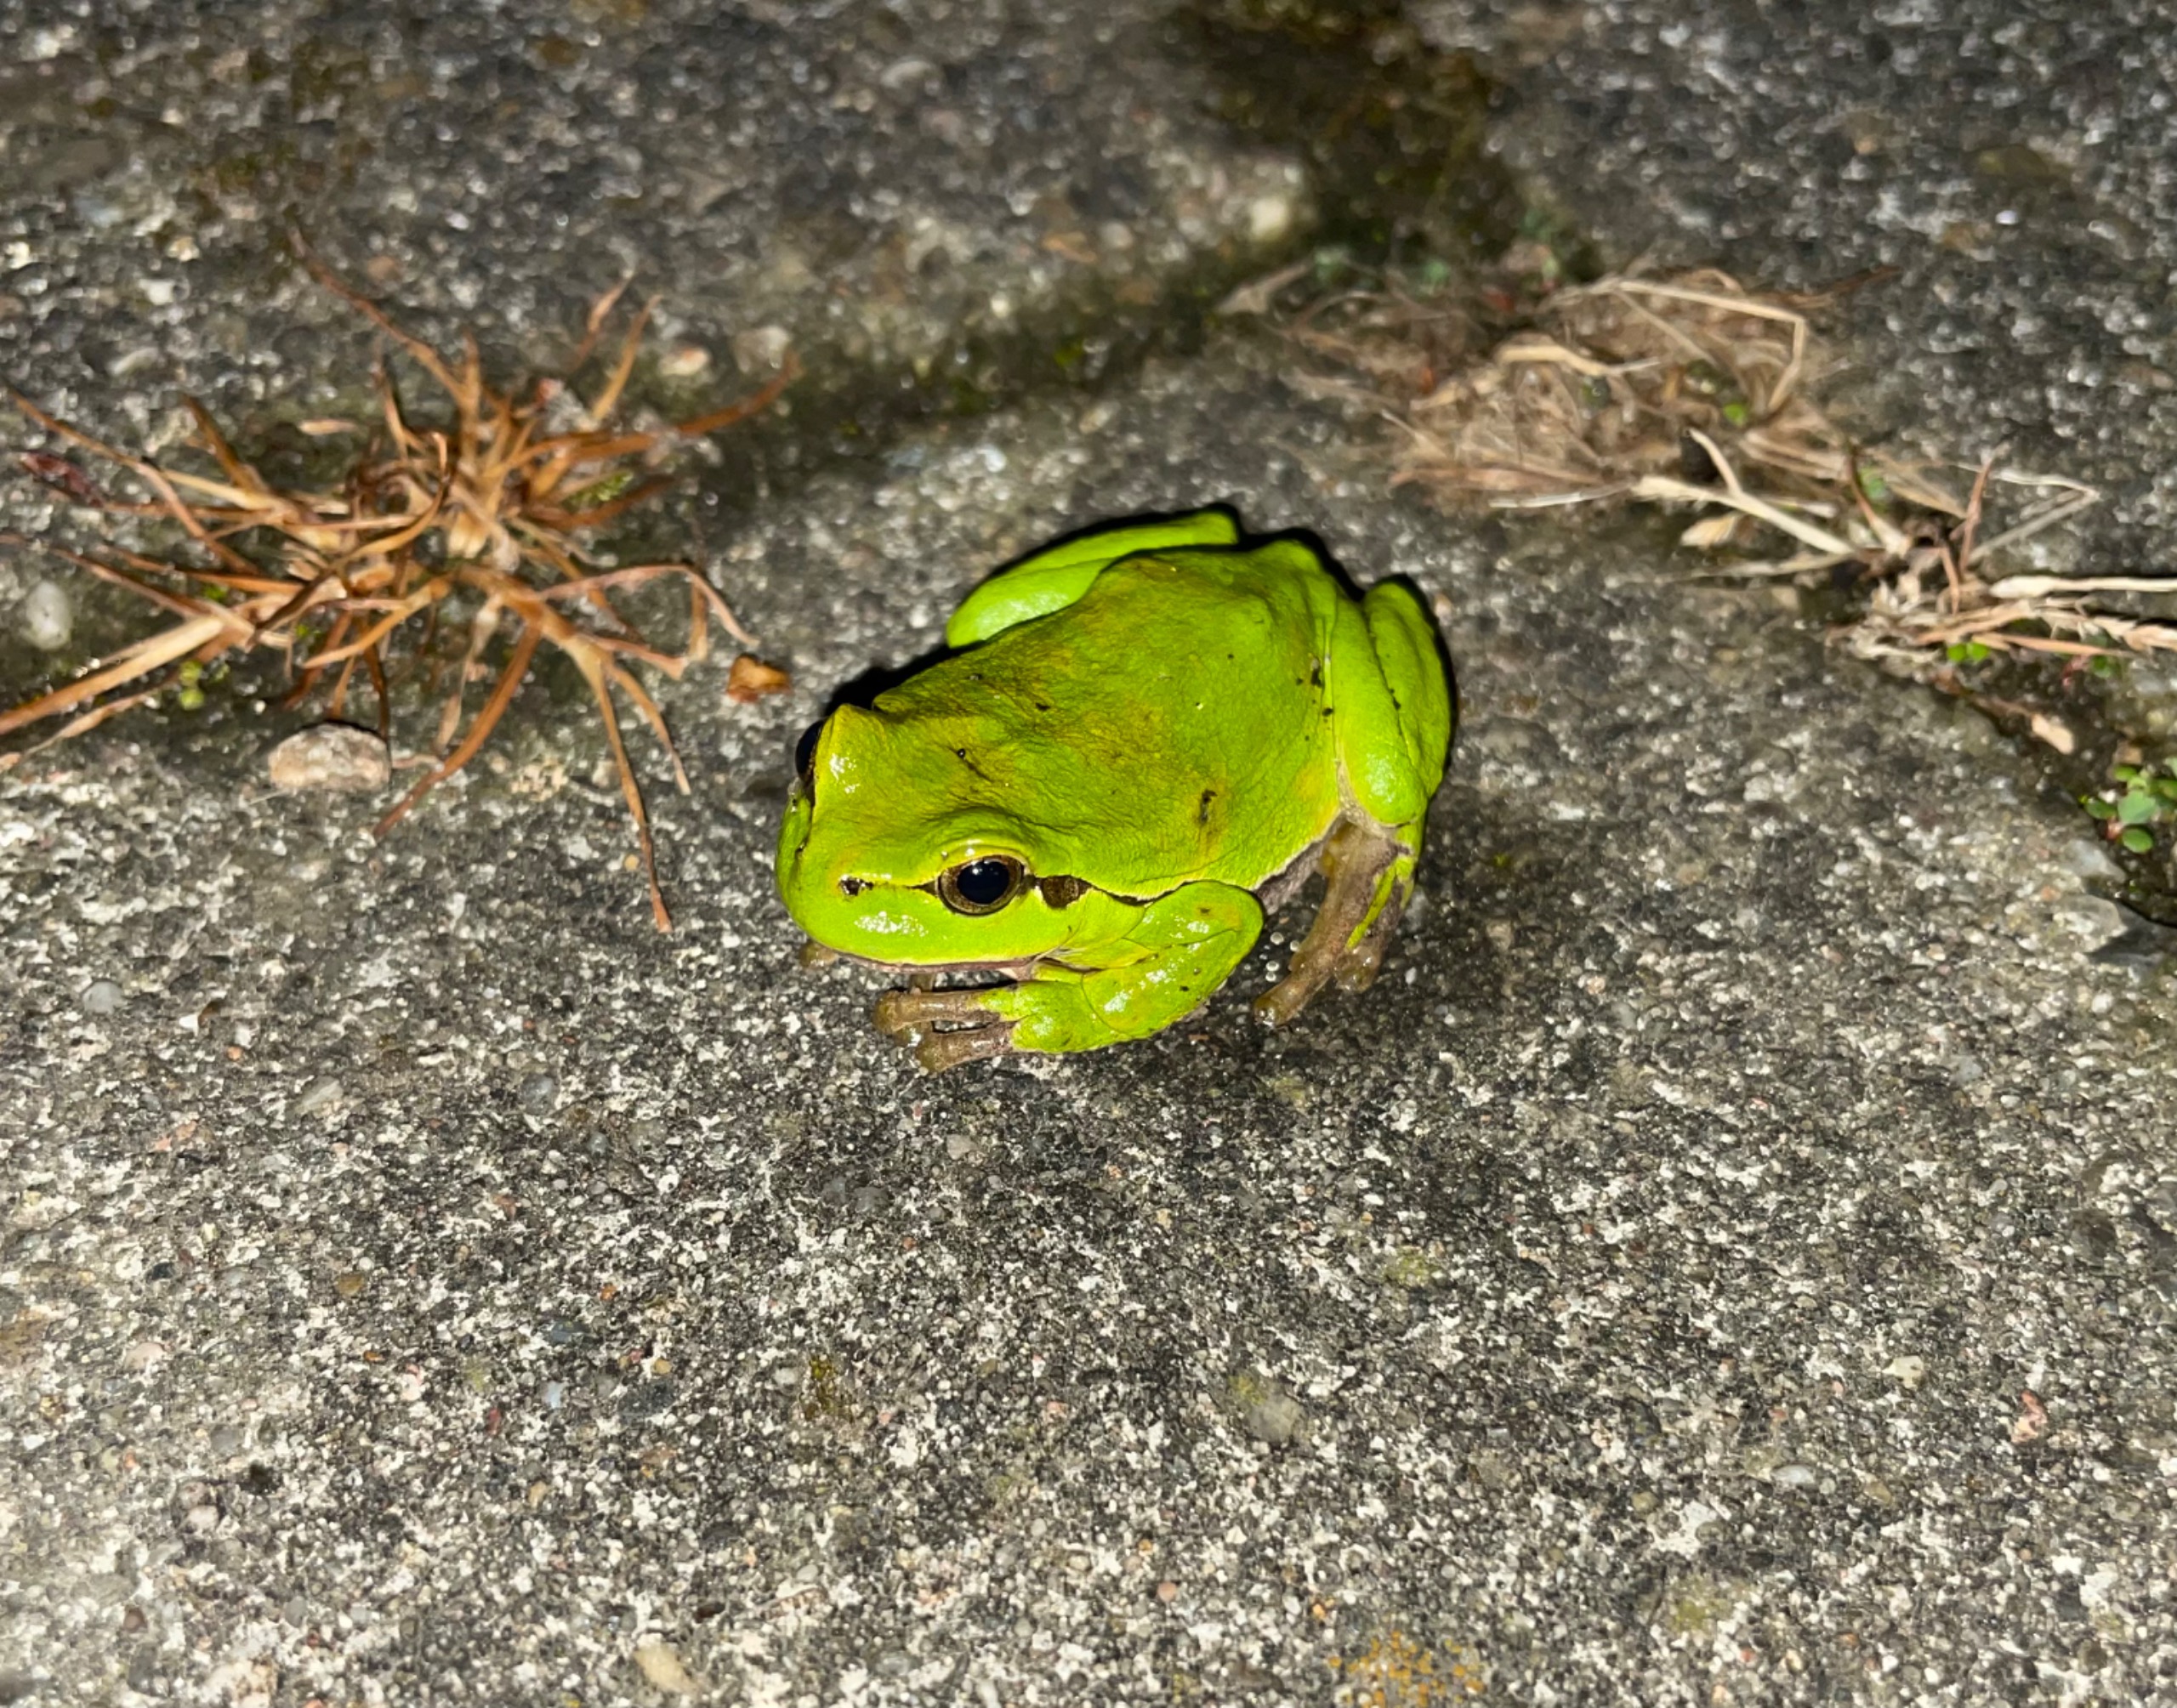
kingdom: Animalia
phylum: Chordata
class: Amphibia
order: Anura
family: Hylidae
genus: Hyla
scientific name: Hyla arborea
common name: Løvfrø
